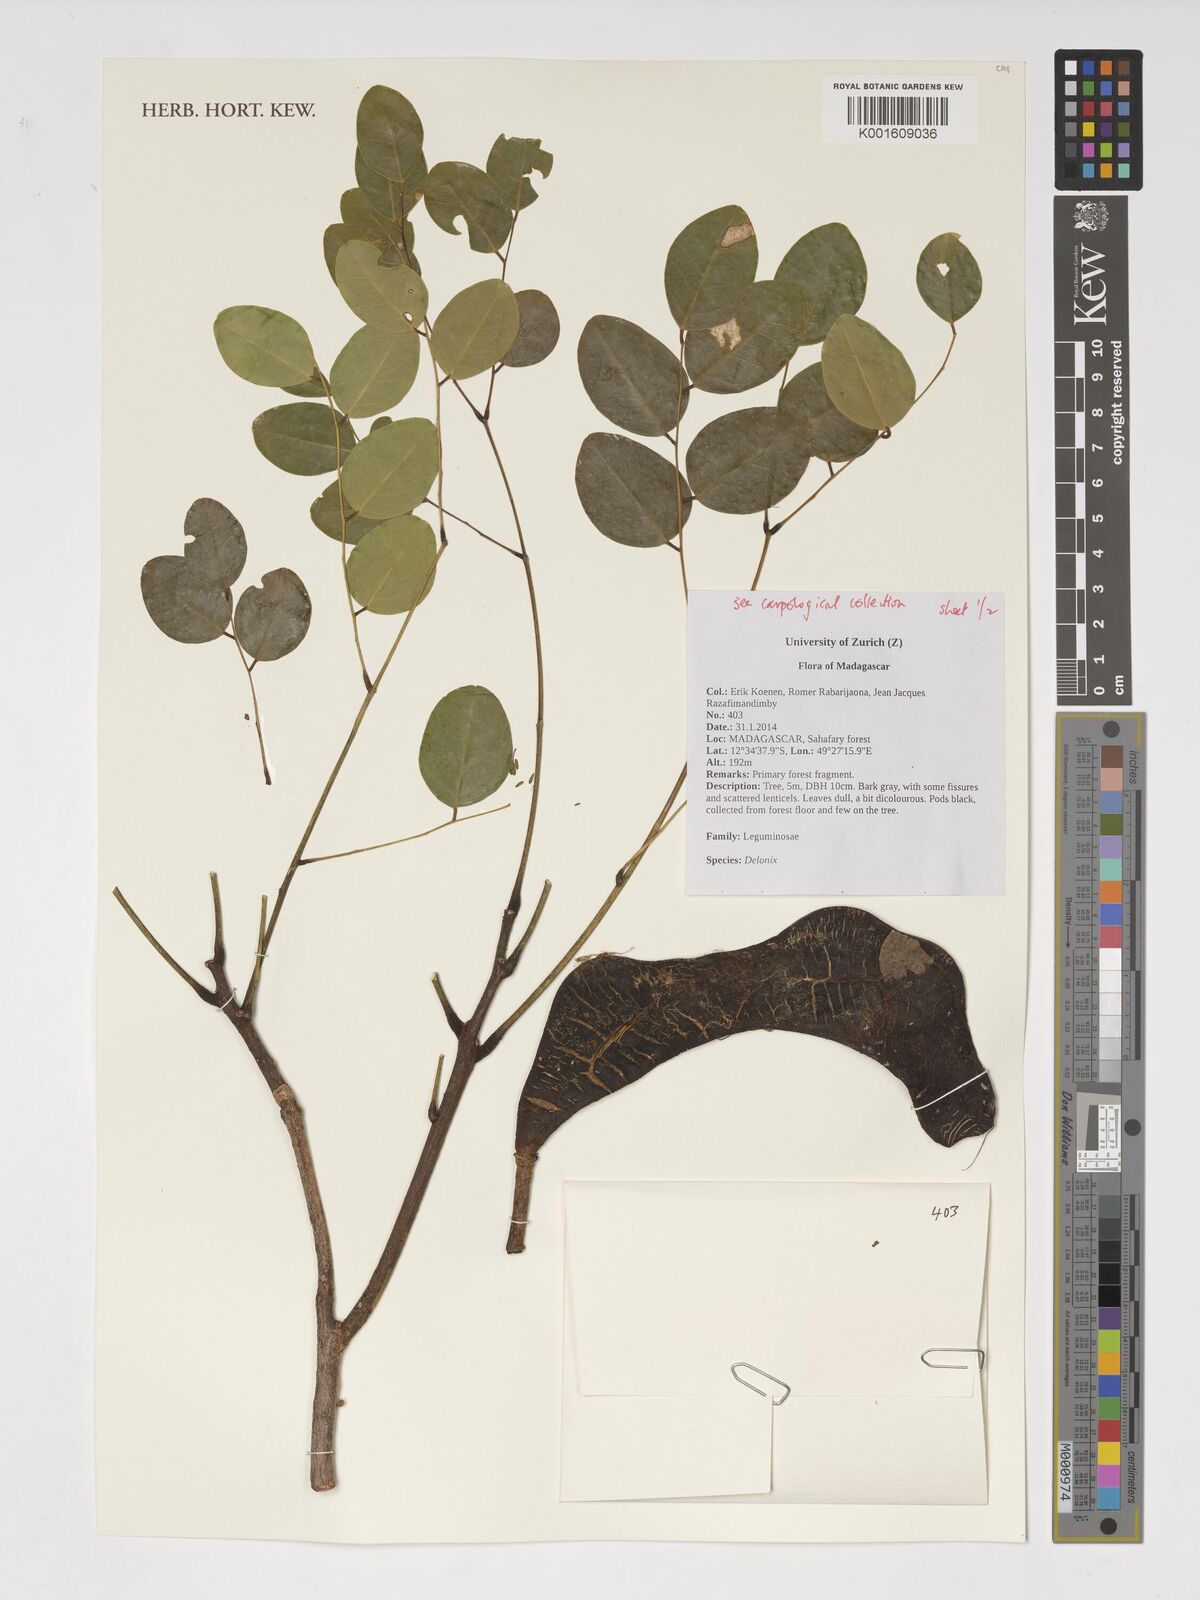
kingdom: Plantae
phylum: Tracheophyta
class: Magnoliopsida
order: Fabales
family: Fabaceae
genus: Delonix
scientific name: Delonix
